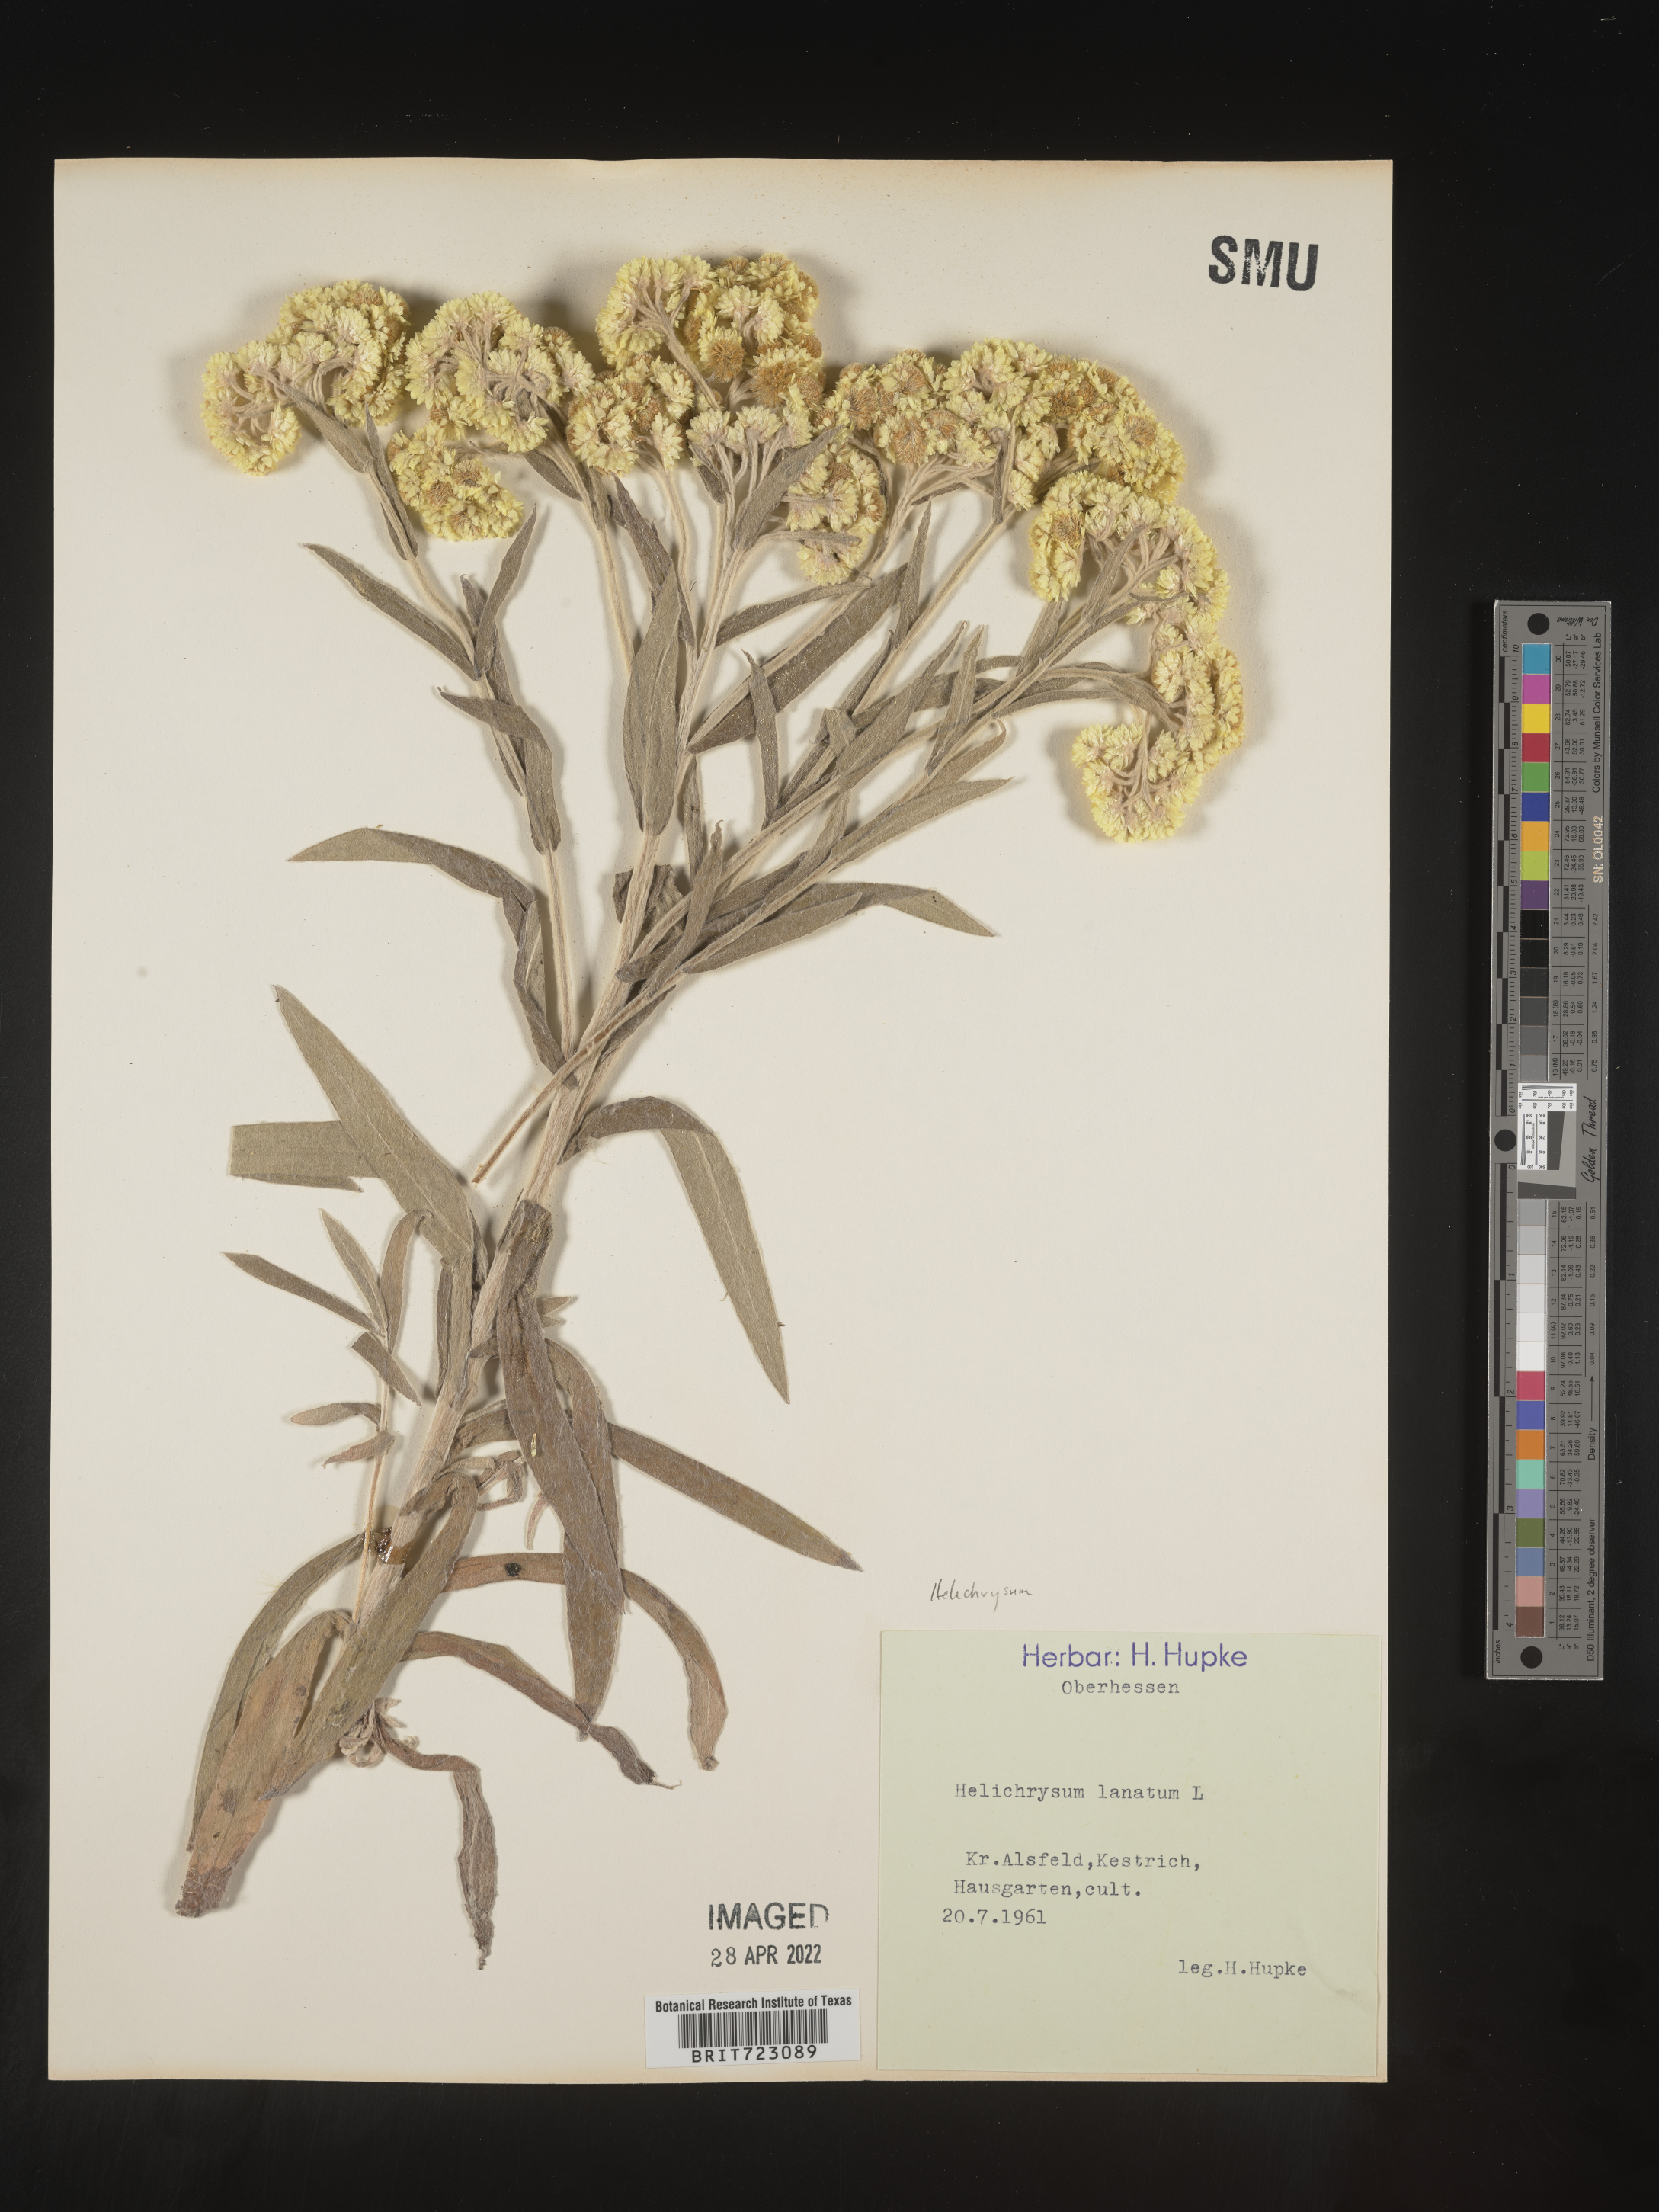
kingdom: Plantae
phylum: Tracheophyta
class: Magnoliopsida
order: Asterales
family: Asteraceae
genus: Helichrysum
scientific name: Helichrysum
